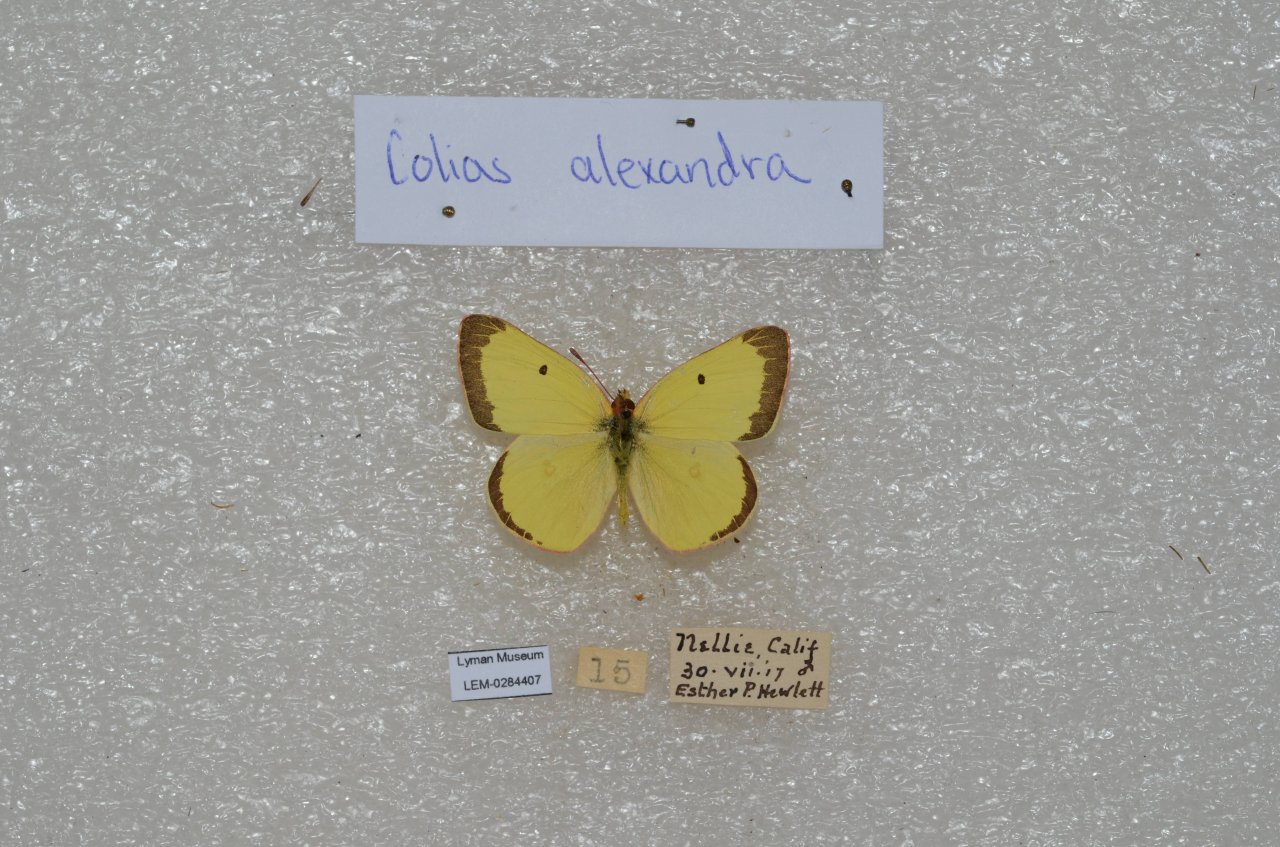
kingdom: Animalia
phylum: Arthropoda
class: Insecta
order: Lepidoptera
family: Pieridae
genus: Colias
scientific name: Colias alexandra
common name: Queen Alexandra's Sulphur
